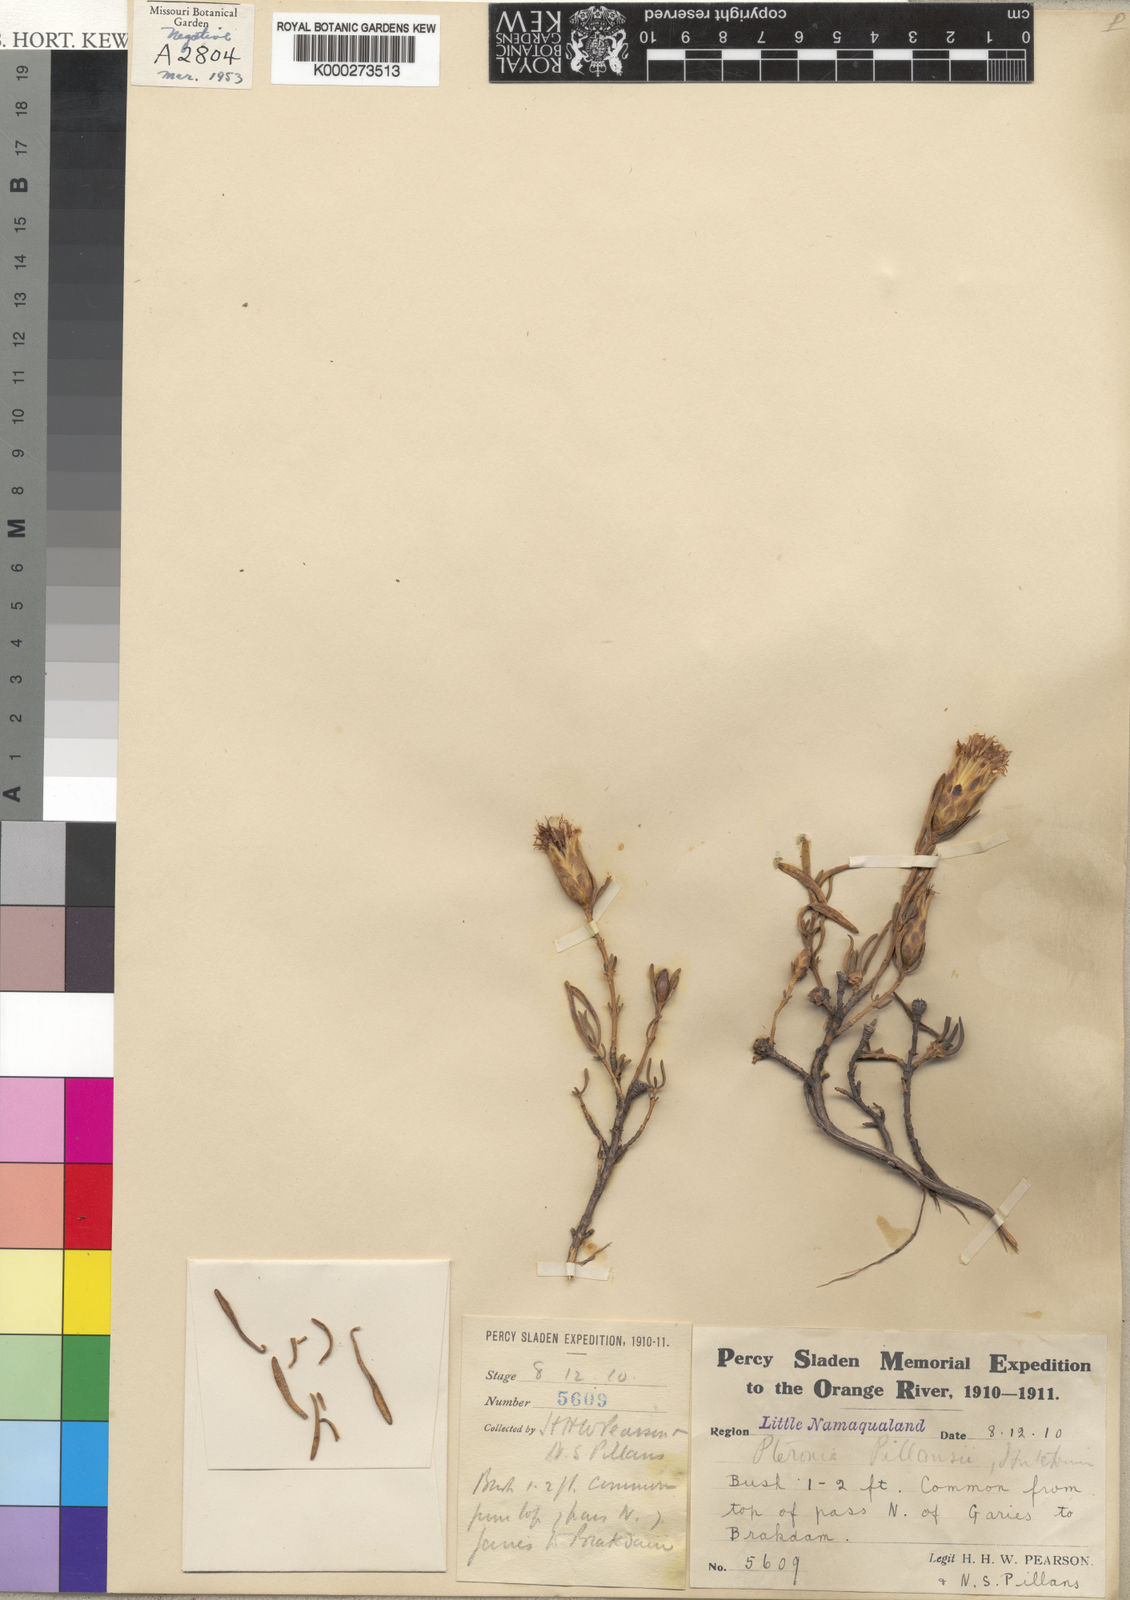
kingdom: Plantae
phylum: Tracheophyta
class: Magnoliopsida
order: Asterales
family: Asteraceae
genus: Pteronia
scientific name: Pteronia pillansii
